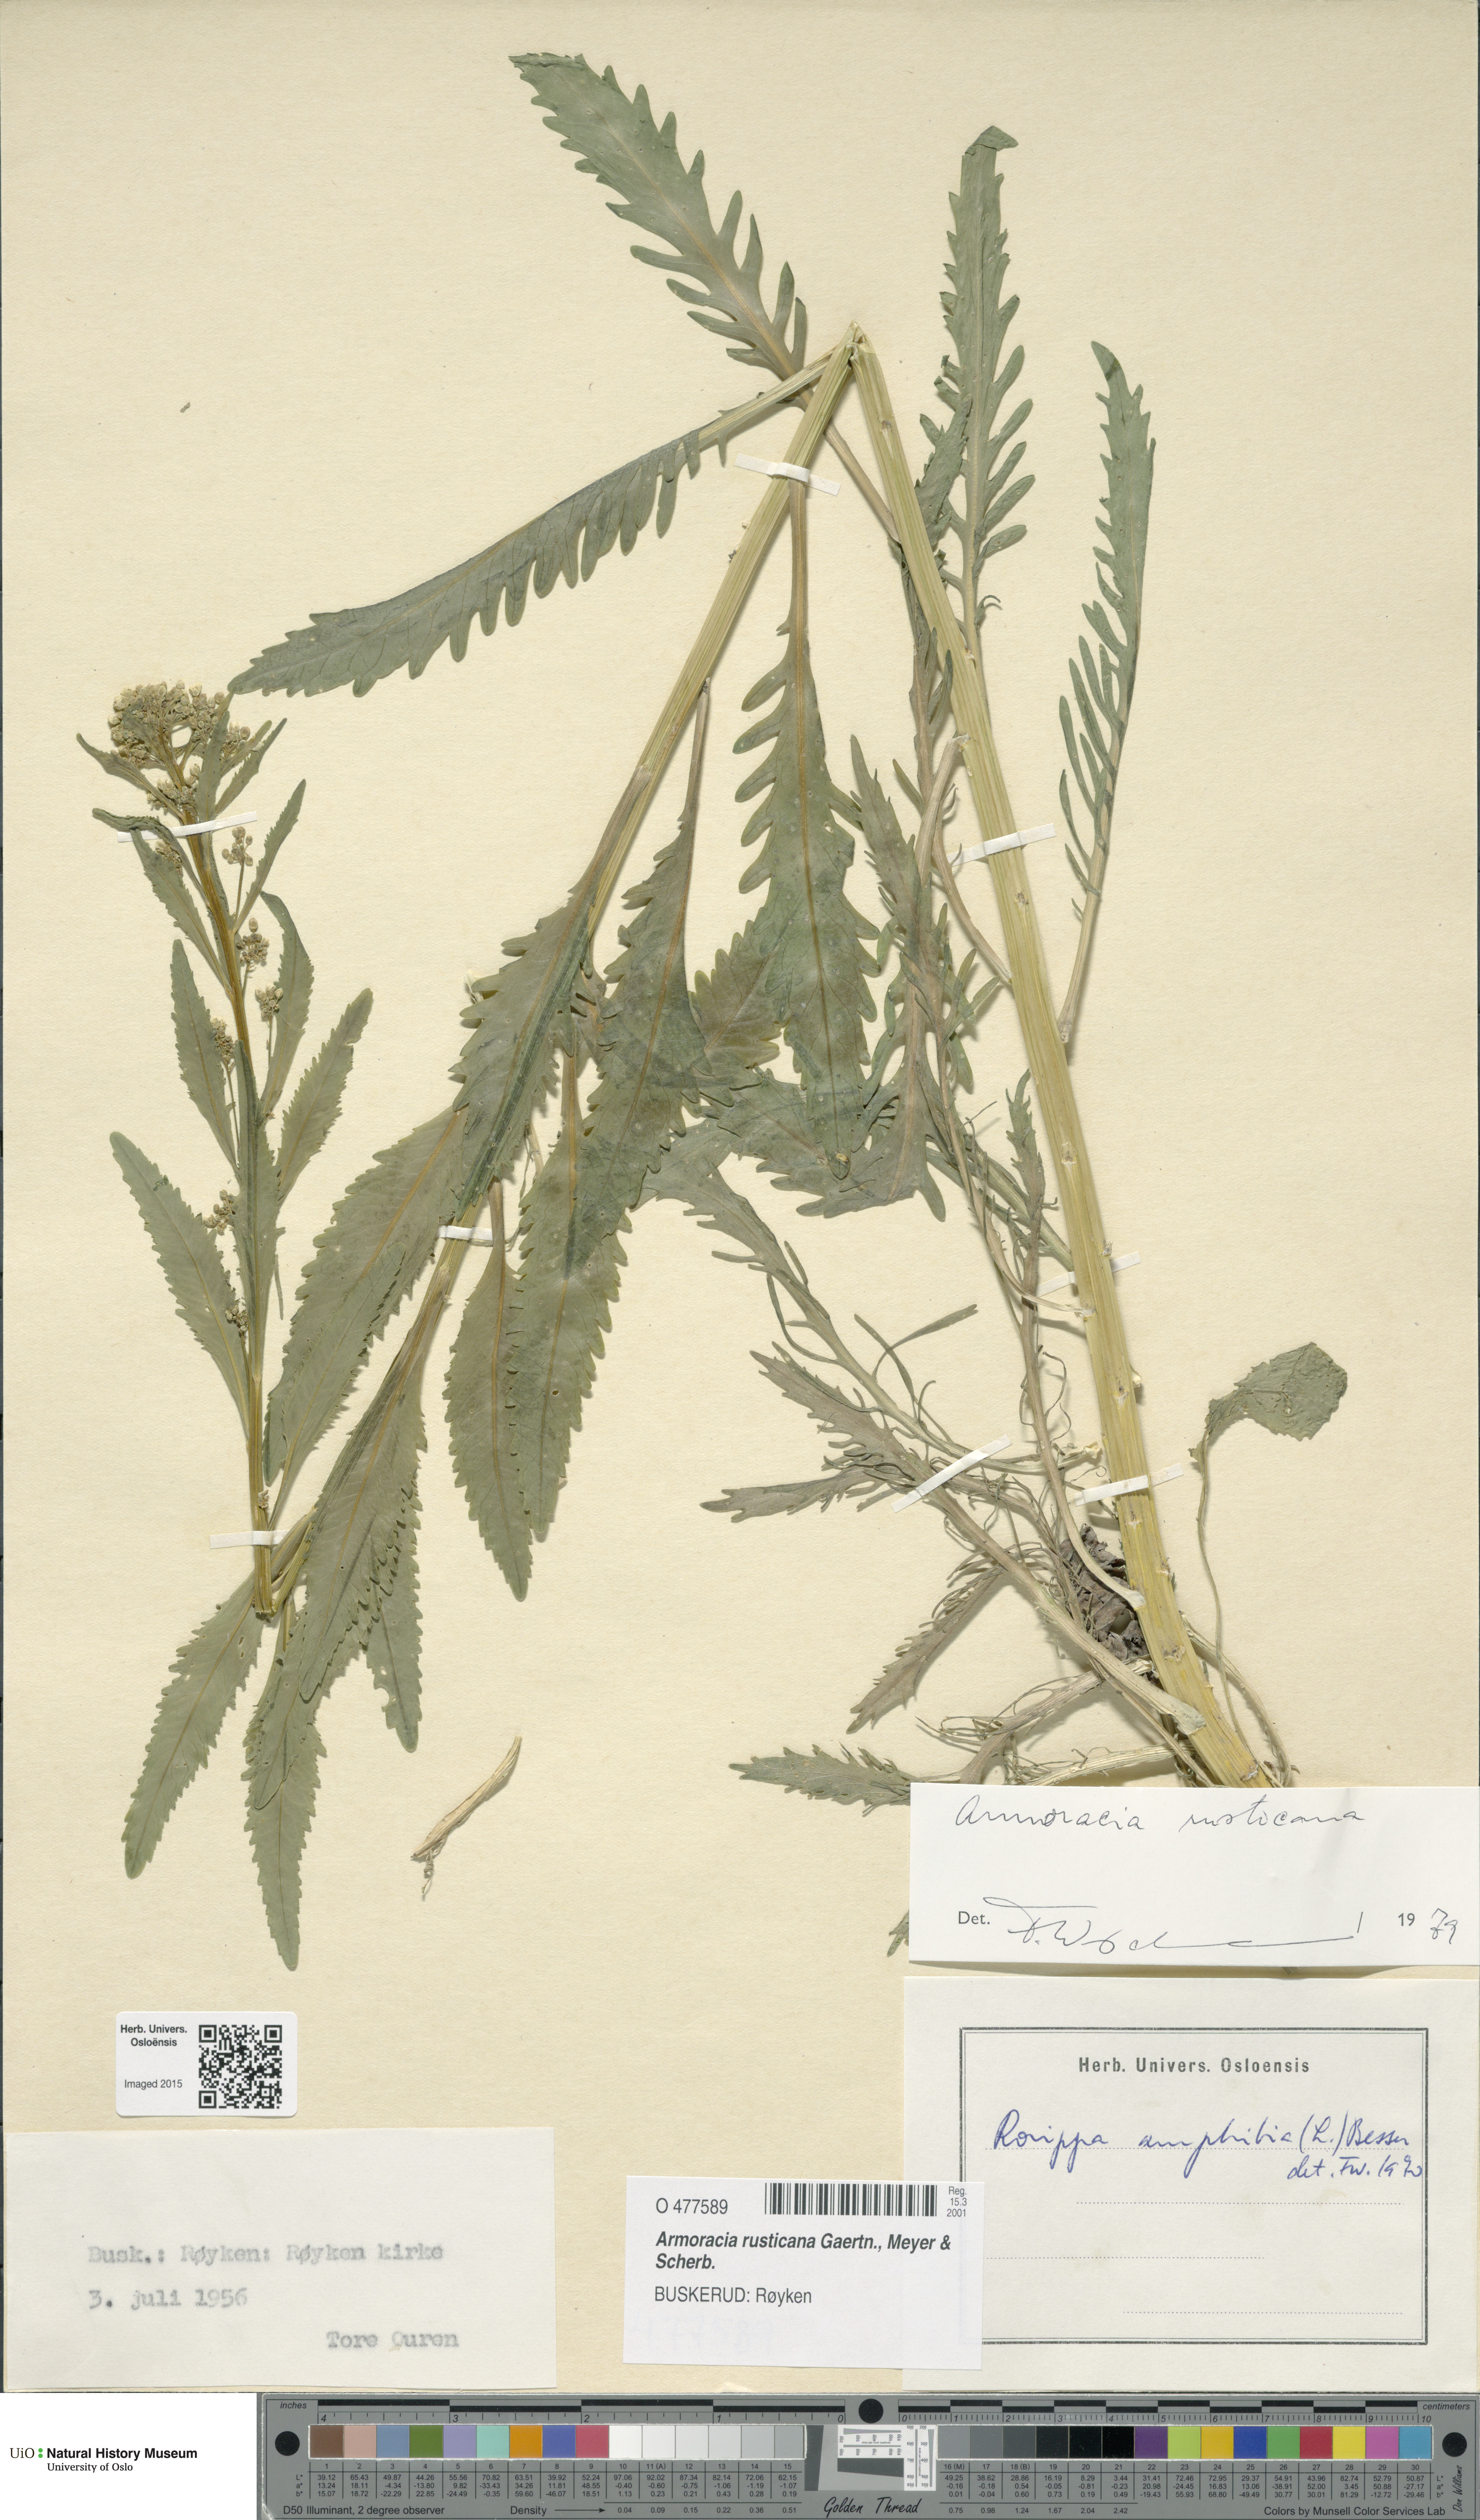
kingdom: Plantae
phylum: Tracheophyta
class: Magnoliopsida
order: Brassicales
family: Brassicaceae
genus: Armoracia
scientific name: Armoracia rusticana
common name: Horseradish
